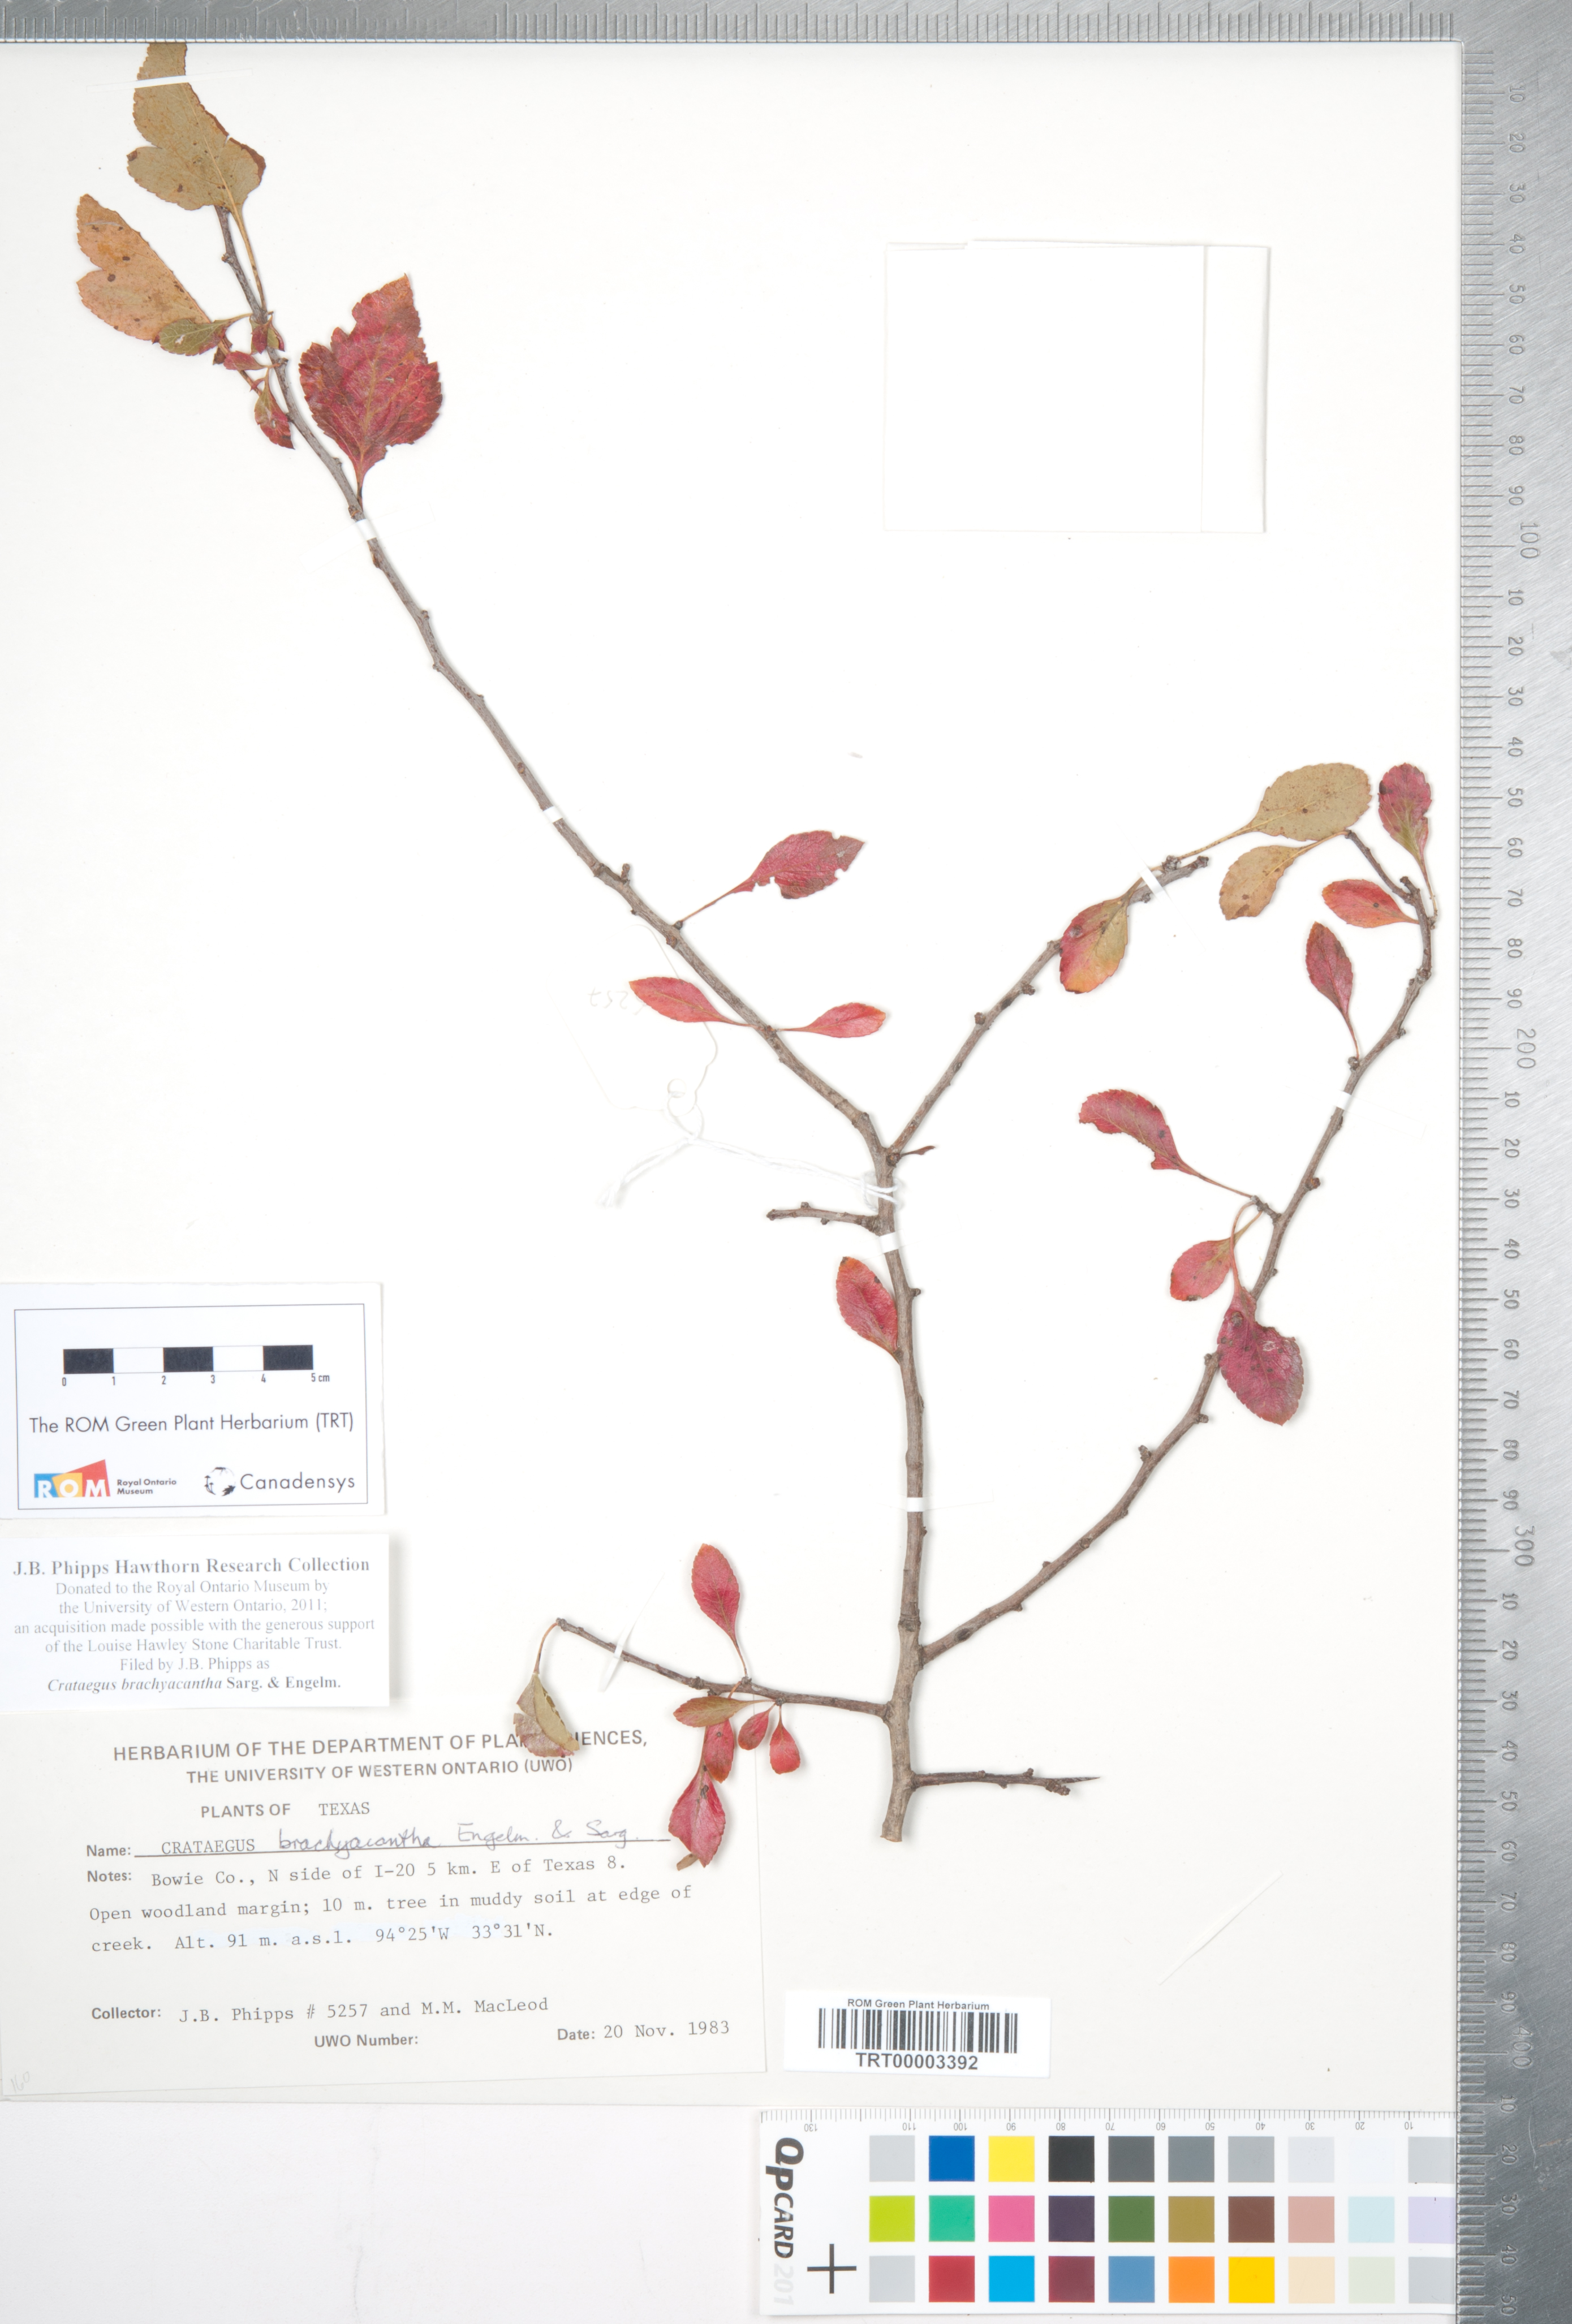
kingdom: Plantae
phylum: Tracheophyta
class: Magnoliopsida
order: Rosales
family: Rosaceae
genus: Crataegus
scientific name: Crataegus brachyacantha
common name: Blueberry-hawthorn
